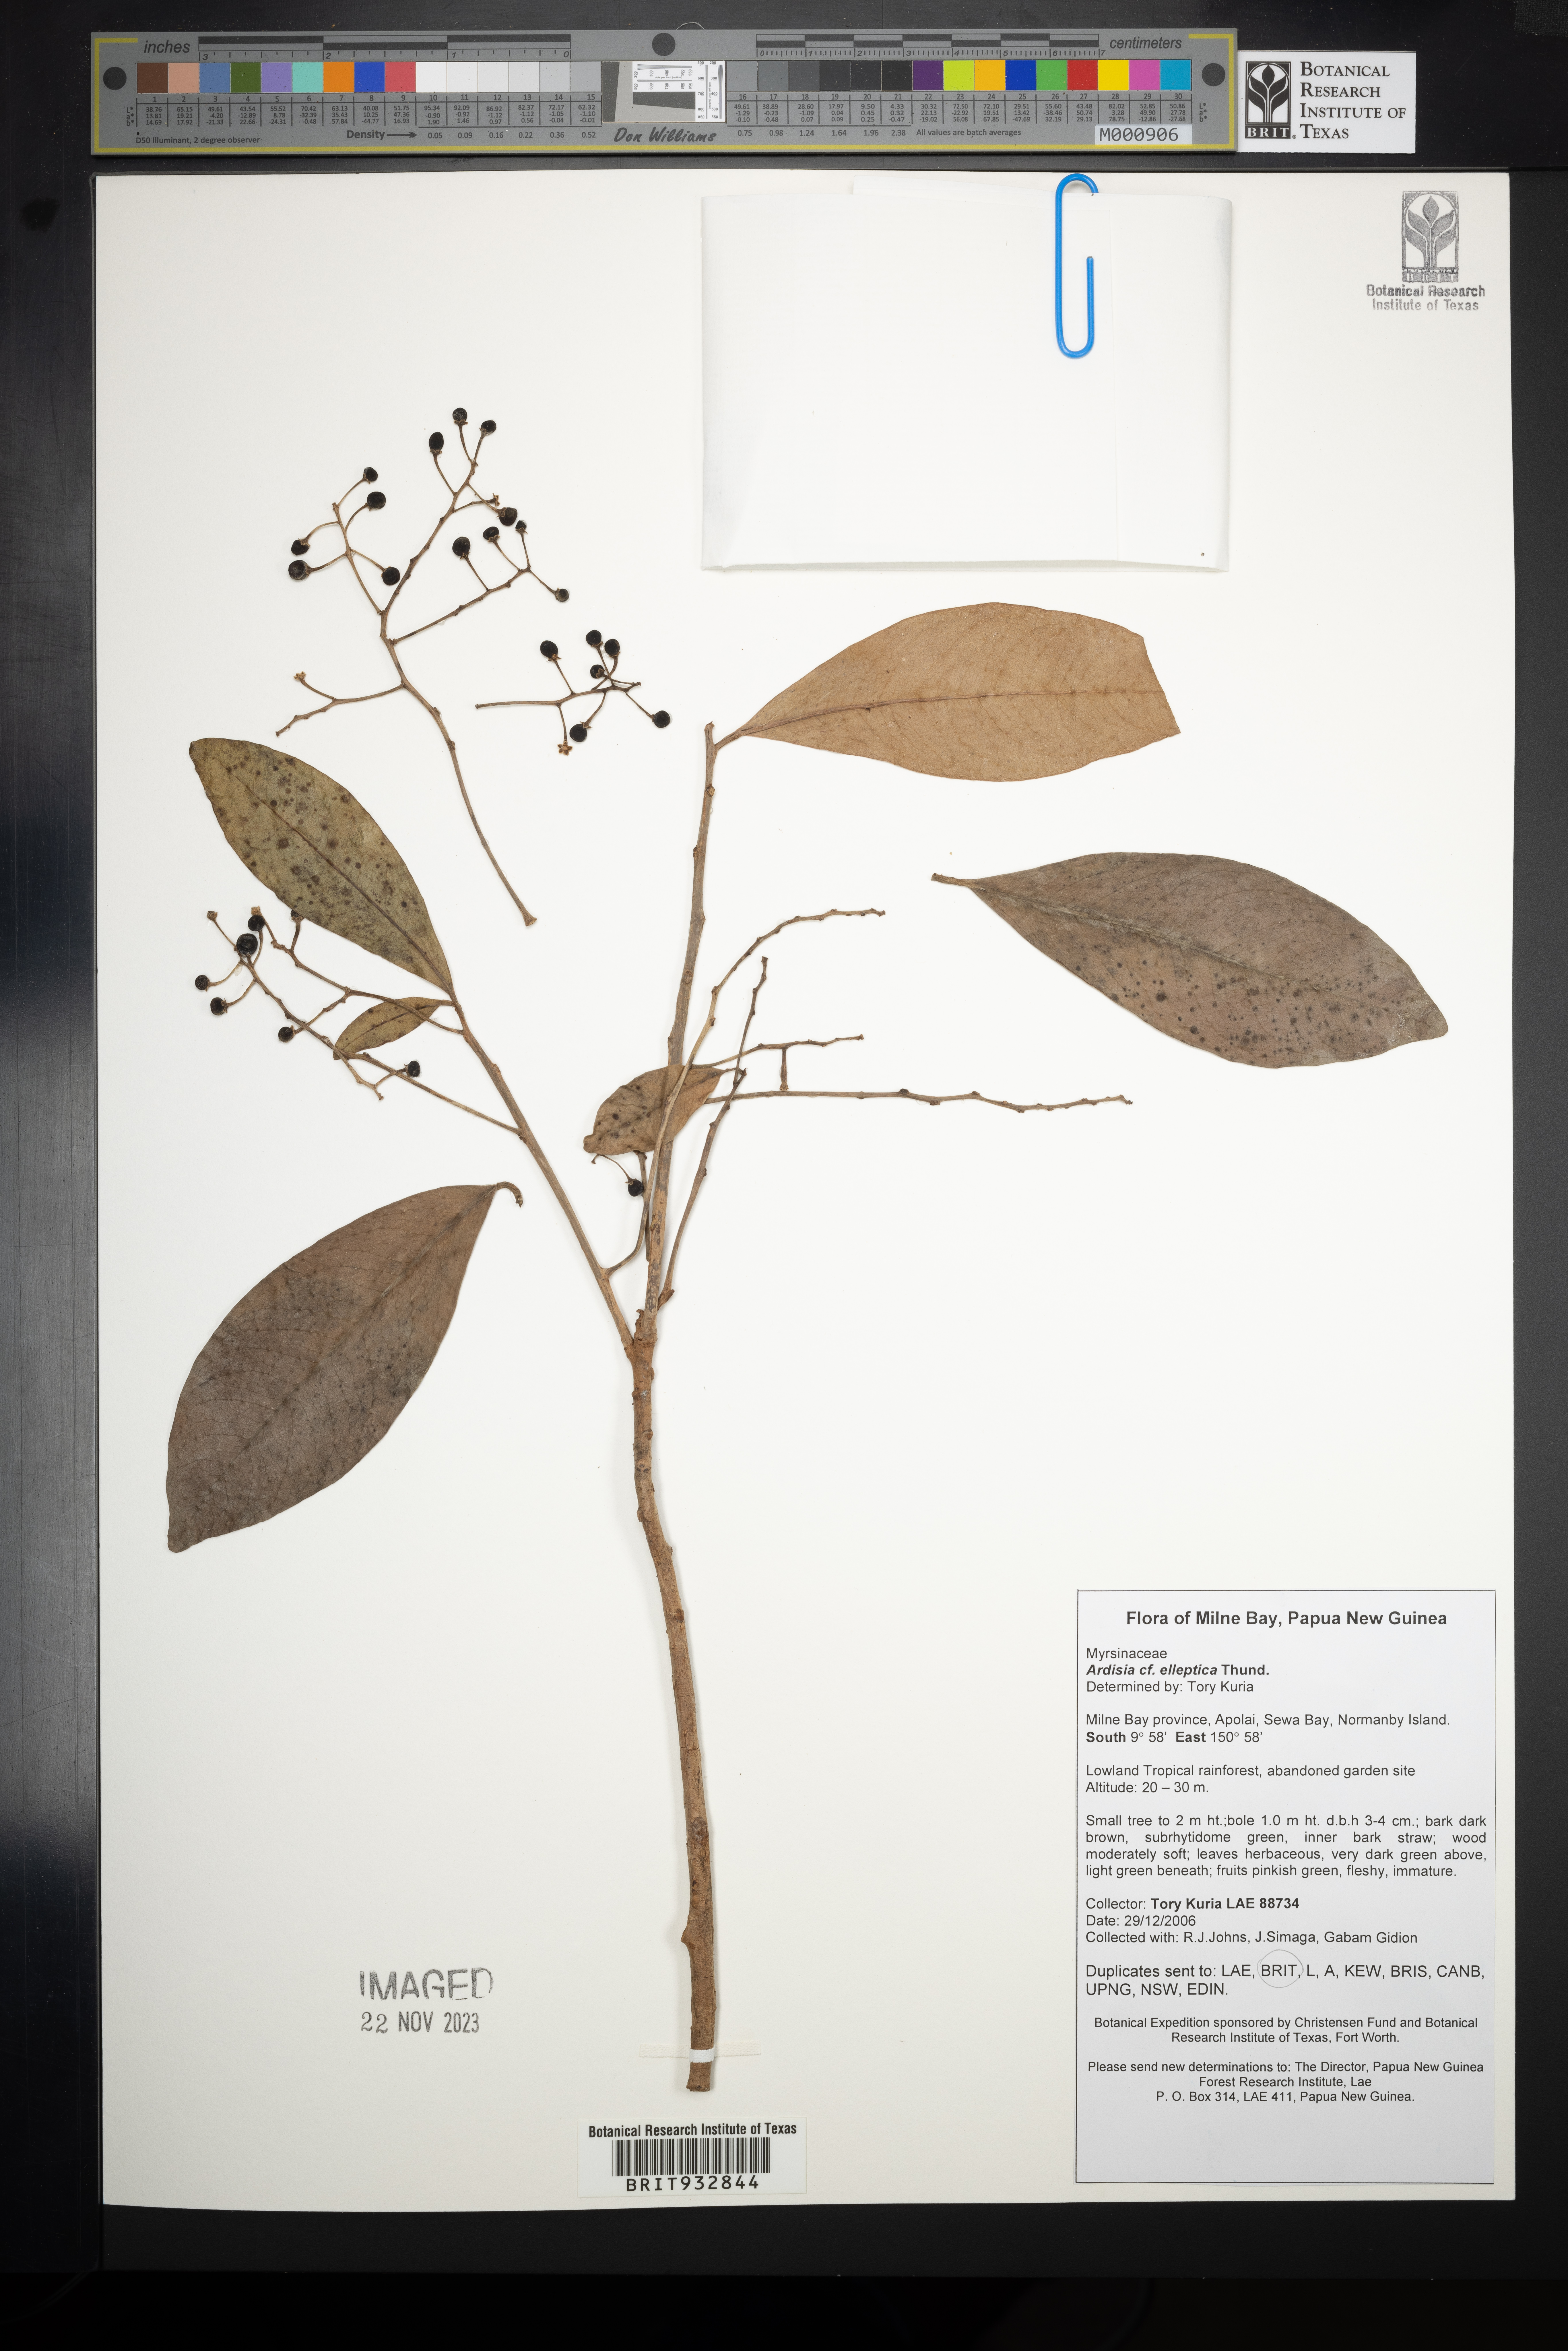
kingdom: Plantae
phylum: Tracheophyta
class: Magnoliopsida
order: Ericales
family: Primulaceae
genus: Ardisia
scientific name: Ardisia elliptica
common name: Shoebutton
